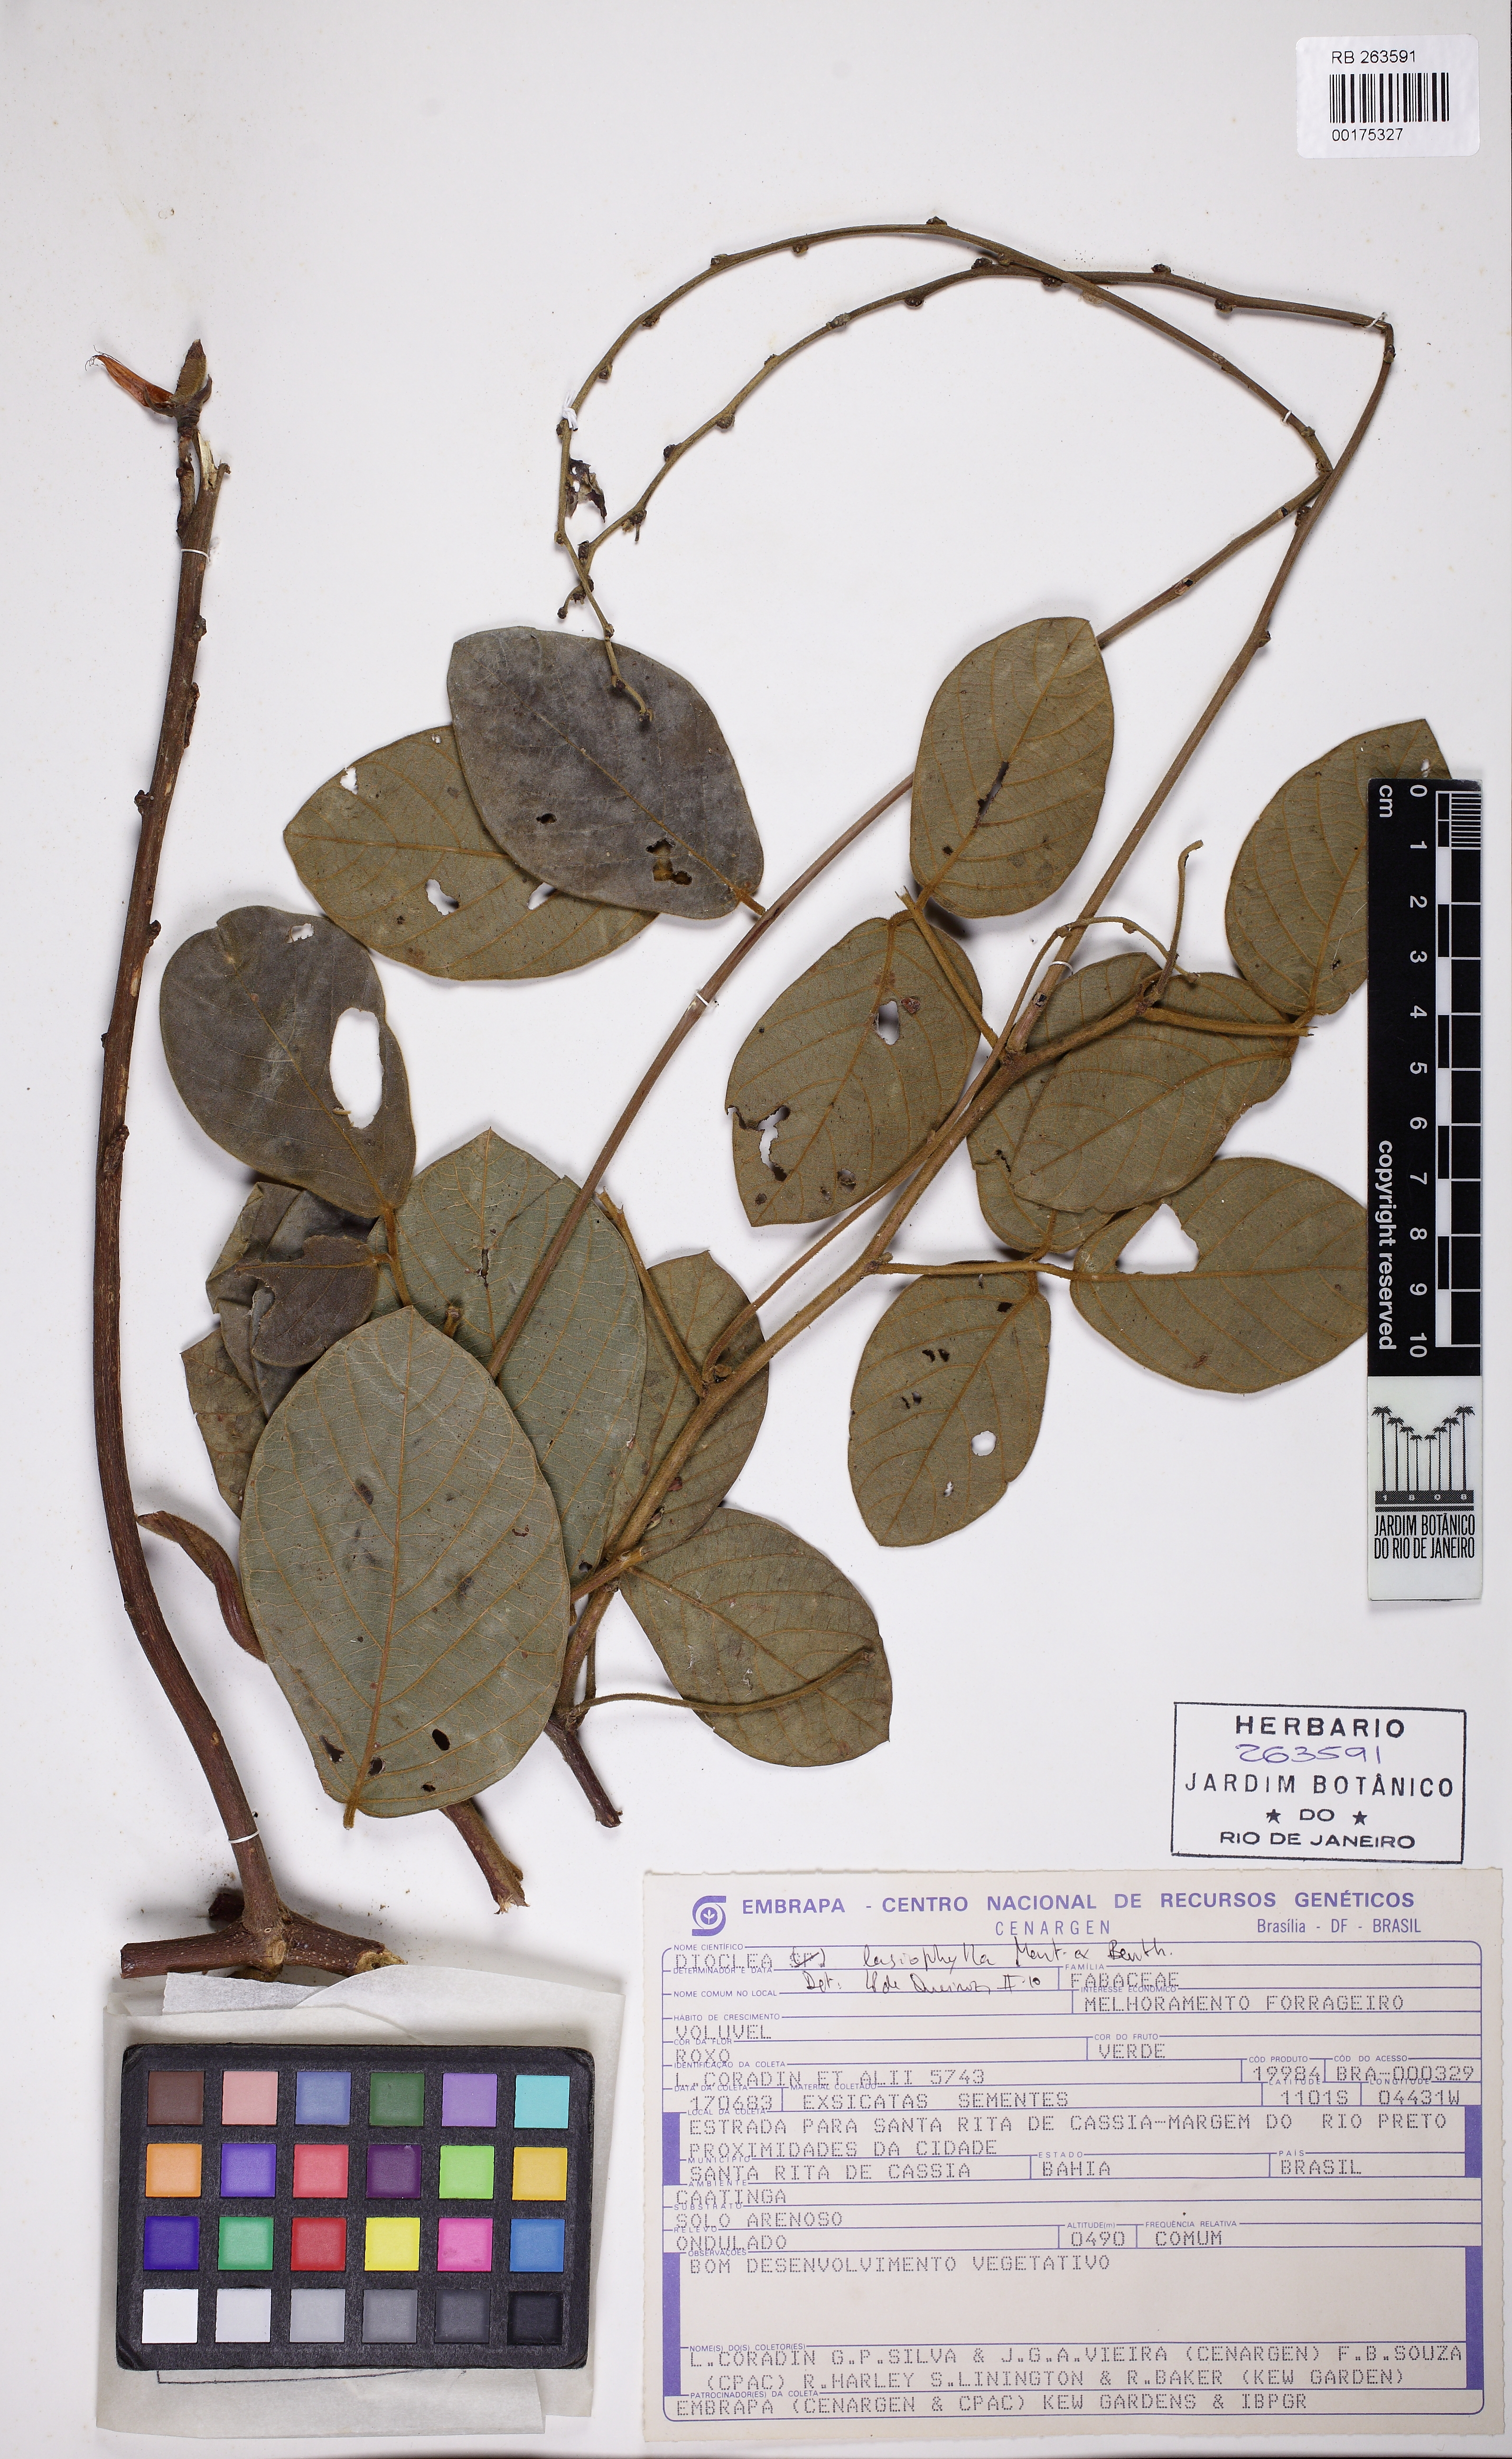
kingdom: Plantae
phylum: Tracheophyta
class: Magnoliopsida
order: Fabales
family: Fabaceae
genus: Dioclea
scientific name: Dioclea lasiophylla
